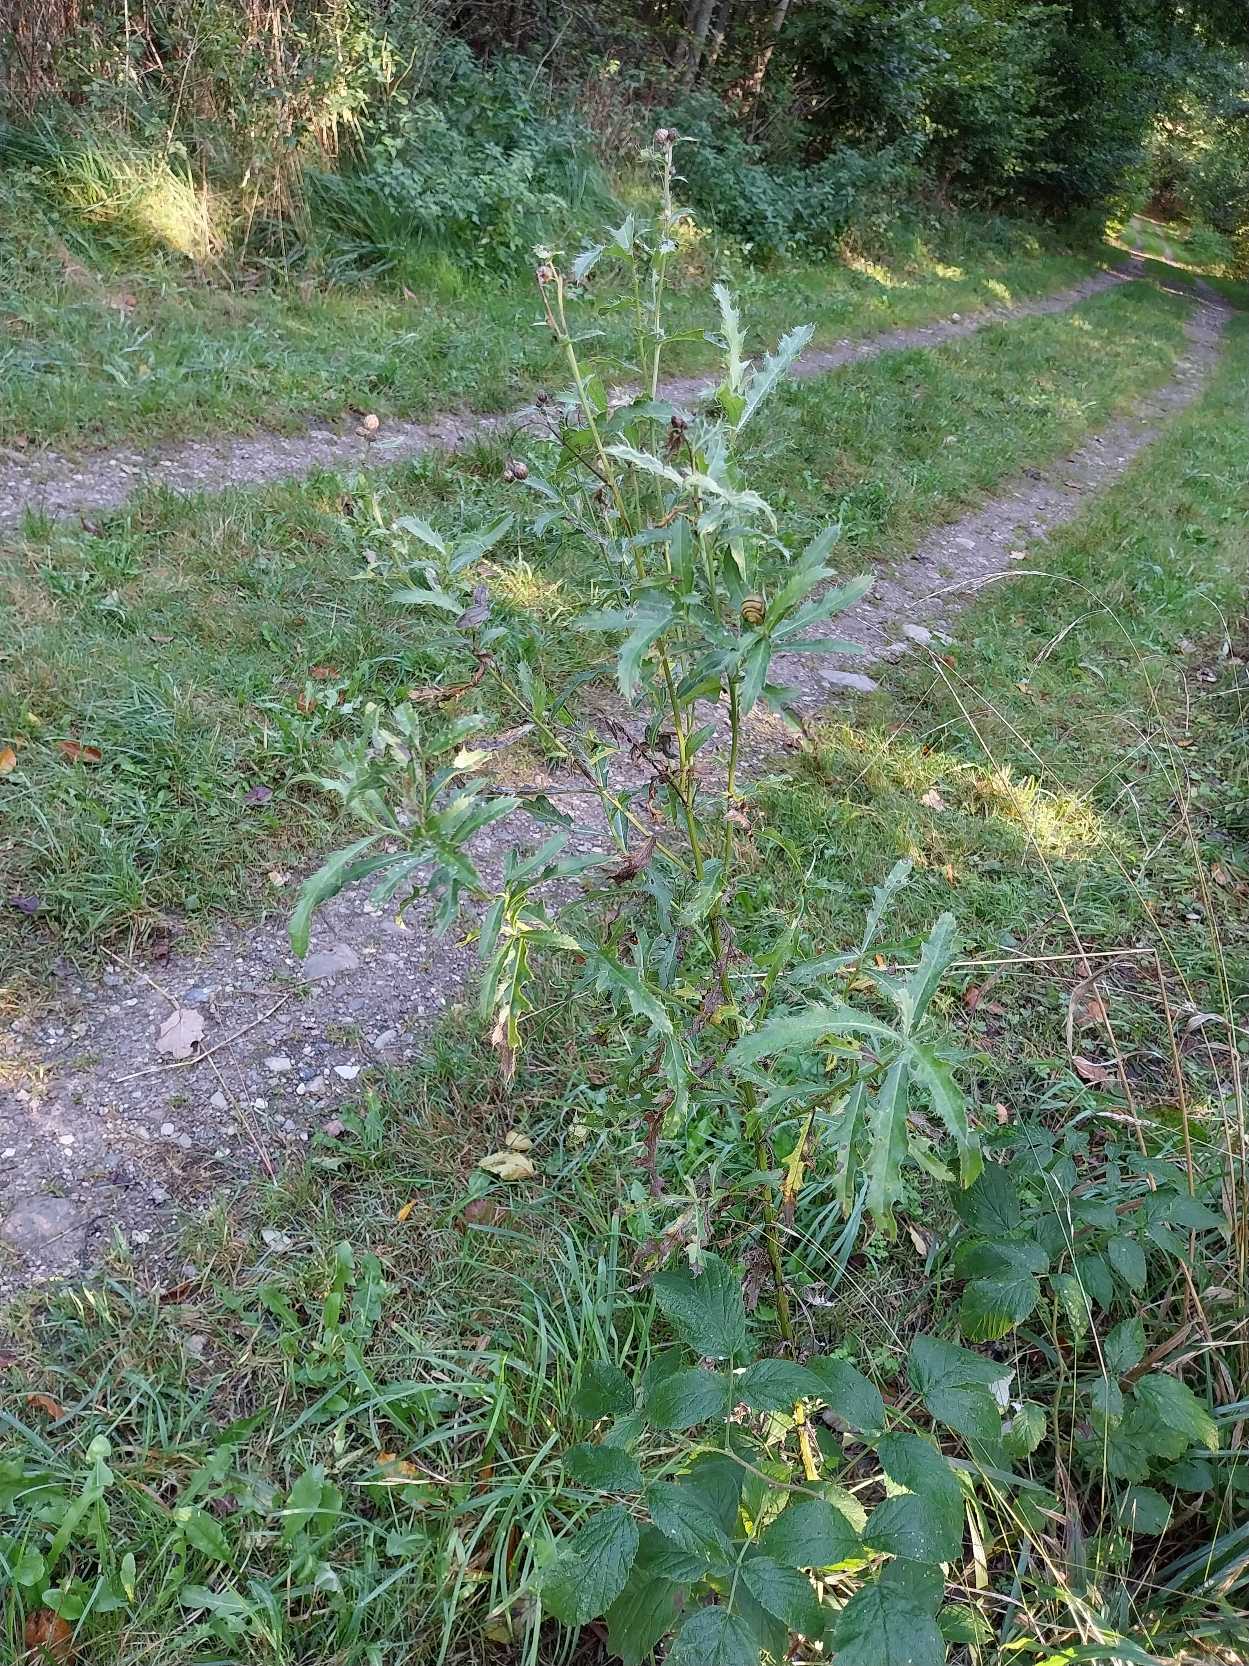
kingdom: Plantae
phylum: Tracheophyta
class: Magnoliopsida
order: Asterales
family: Asteraceae
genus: Cirsium
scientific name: Cirsium arvense
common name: Ager-tidsel
